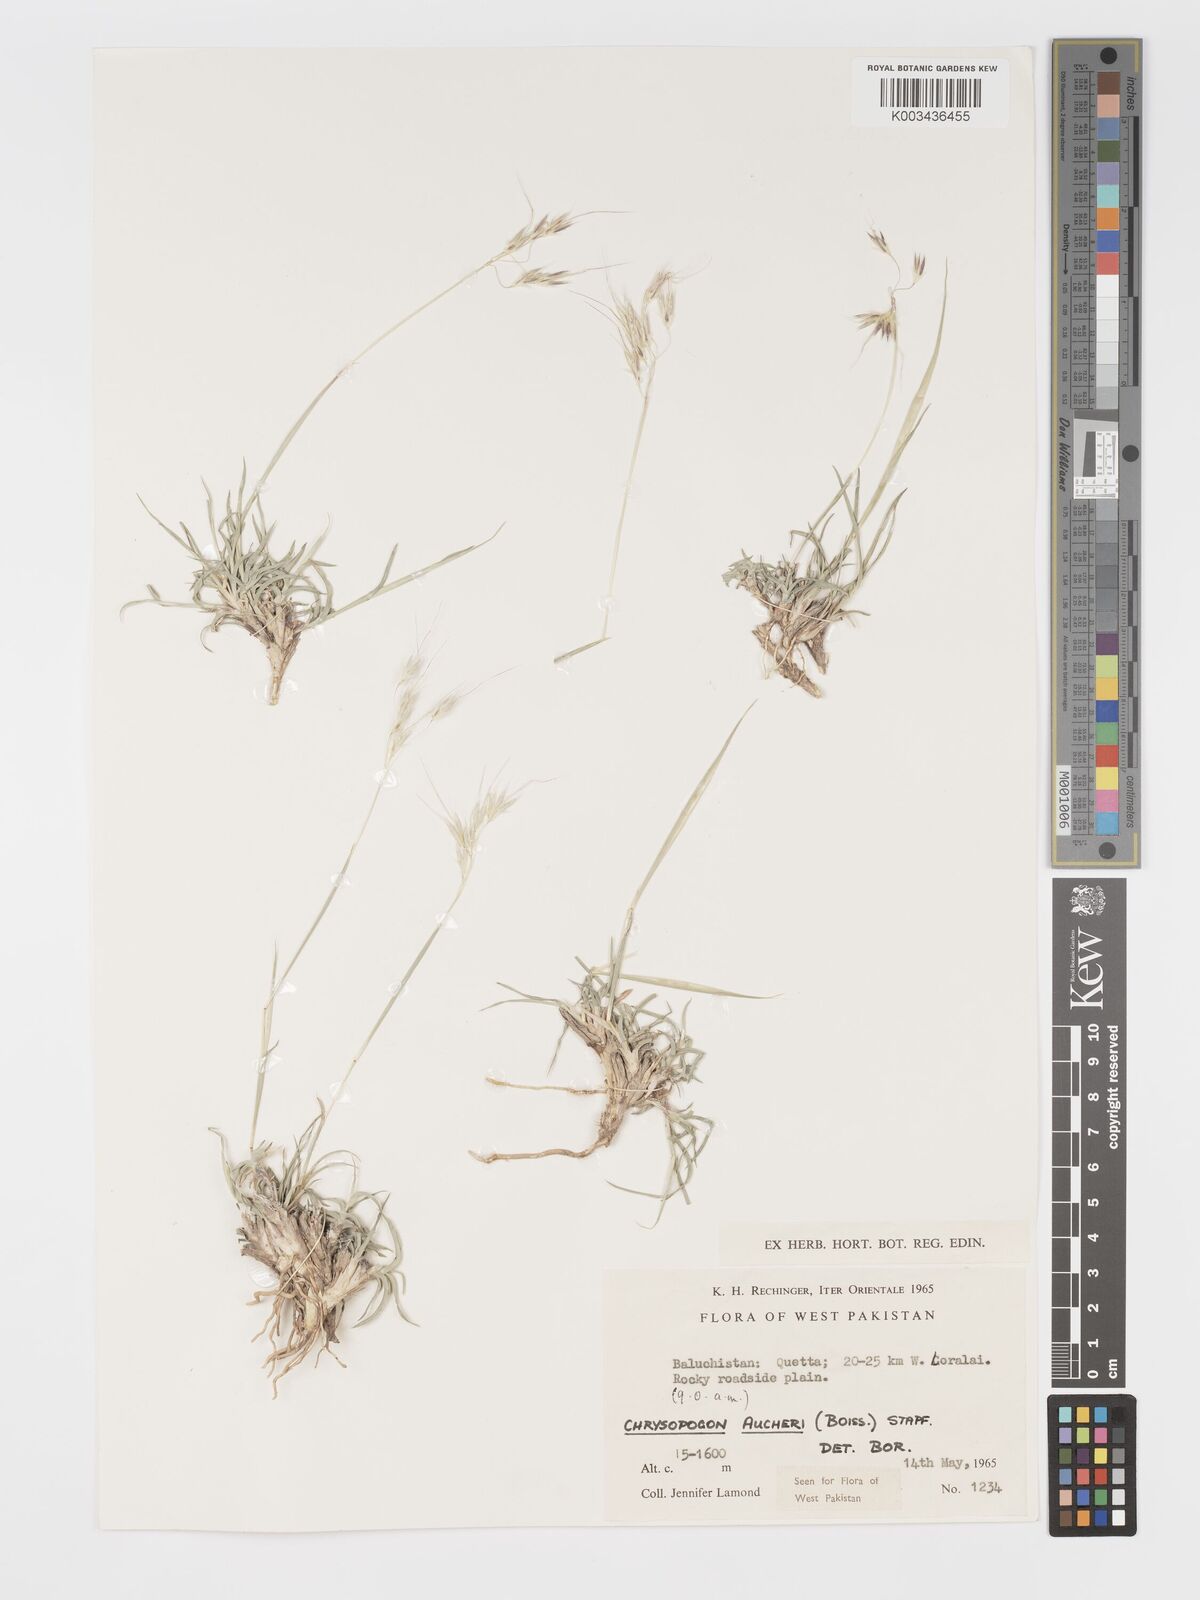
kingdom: Plantae
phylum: Tracheophyta
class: Liliopsida
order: Poales
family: Poaceae
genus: Chrysopogon
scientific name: Chrysopogon aucheri
